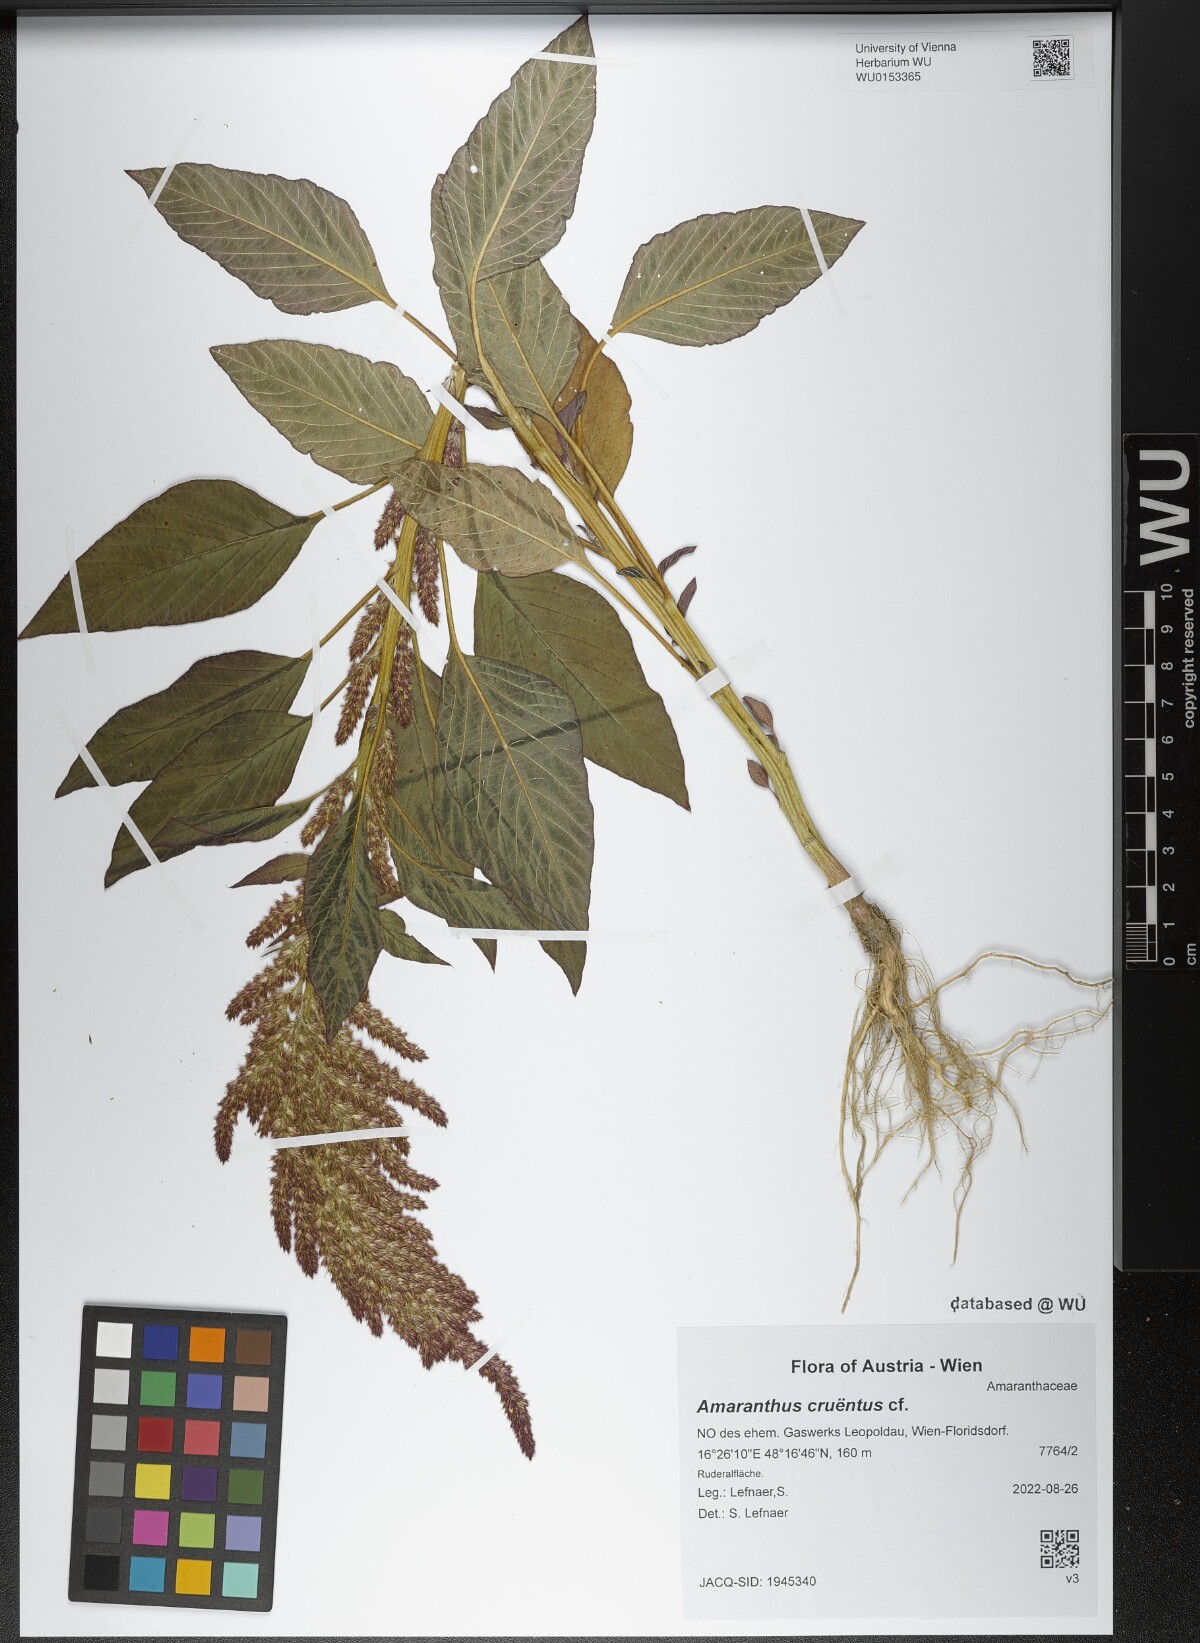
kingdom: Plantae
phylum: Tracheophyta
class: Magnoliopsida
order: Caryophyllales
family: Amaranthaceae
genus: Amaranthus
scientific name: Amaranthus cruentus
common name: Purple amaranth
